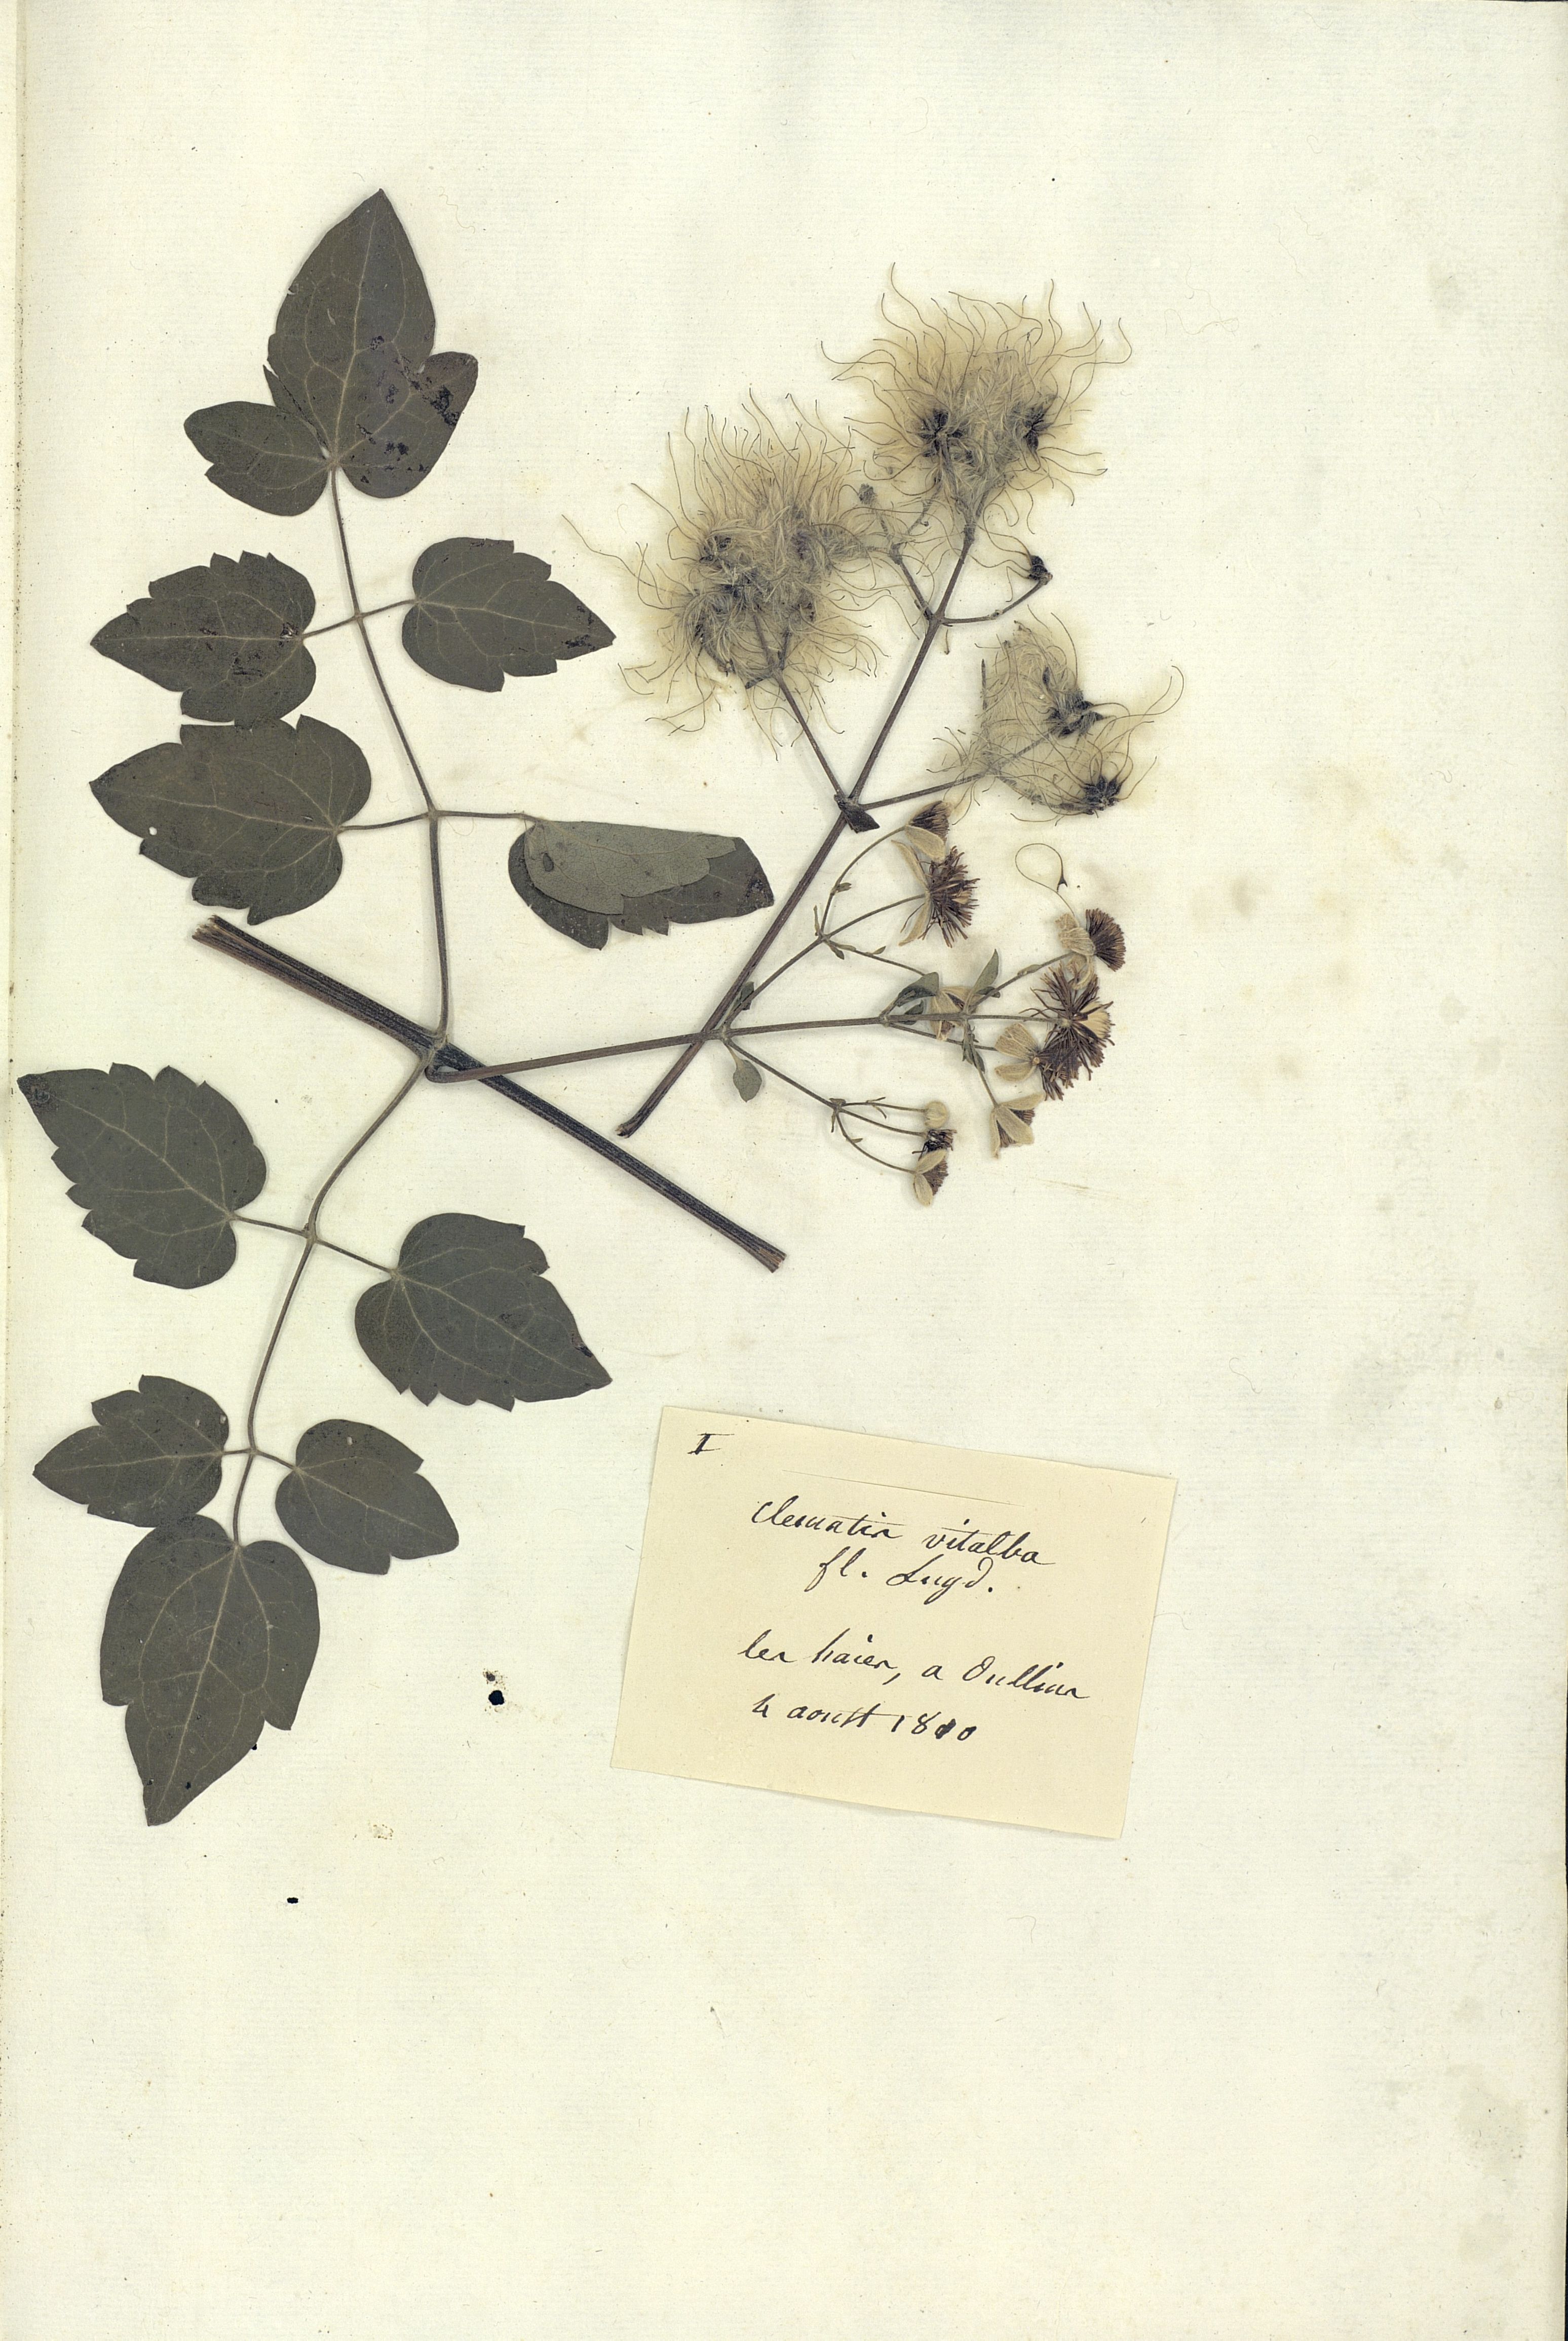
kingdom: Plantae
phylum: Tracheophyta
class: Magnoliopsida
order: Ranunculales
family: Ranunculaceae
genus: Clematis
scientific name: Clematis vitalba
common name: Evergreen clematis
